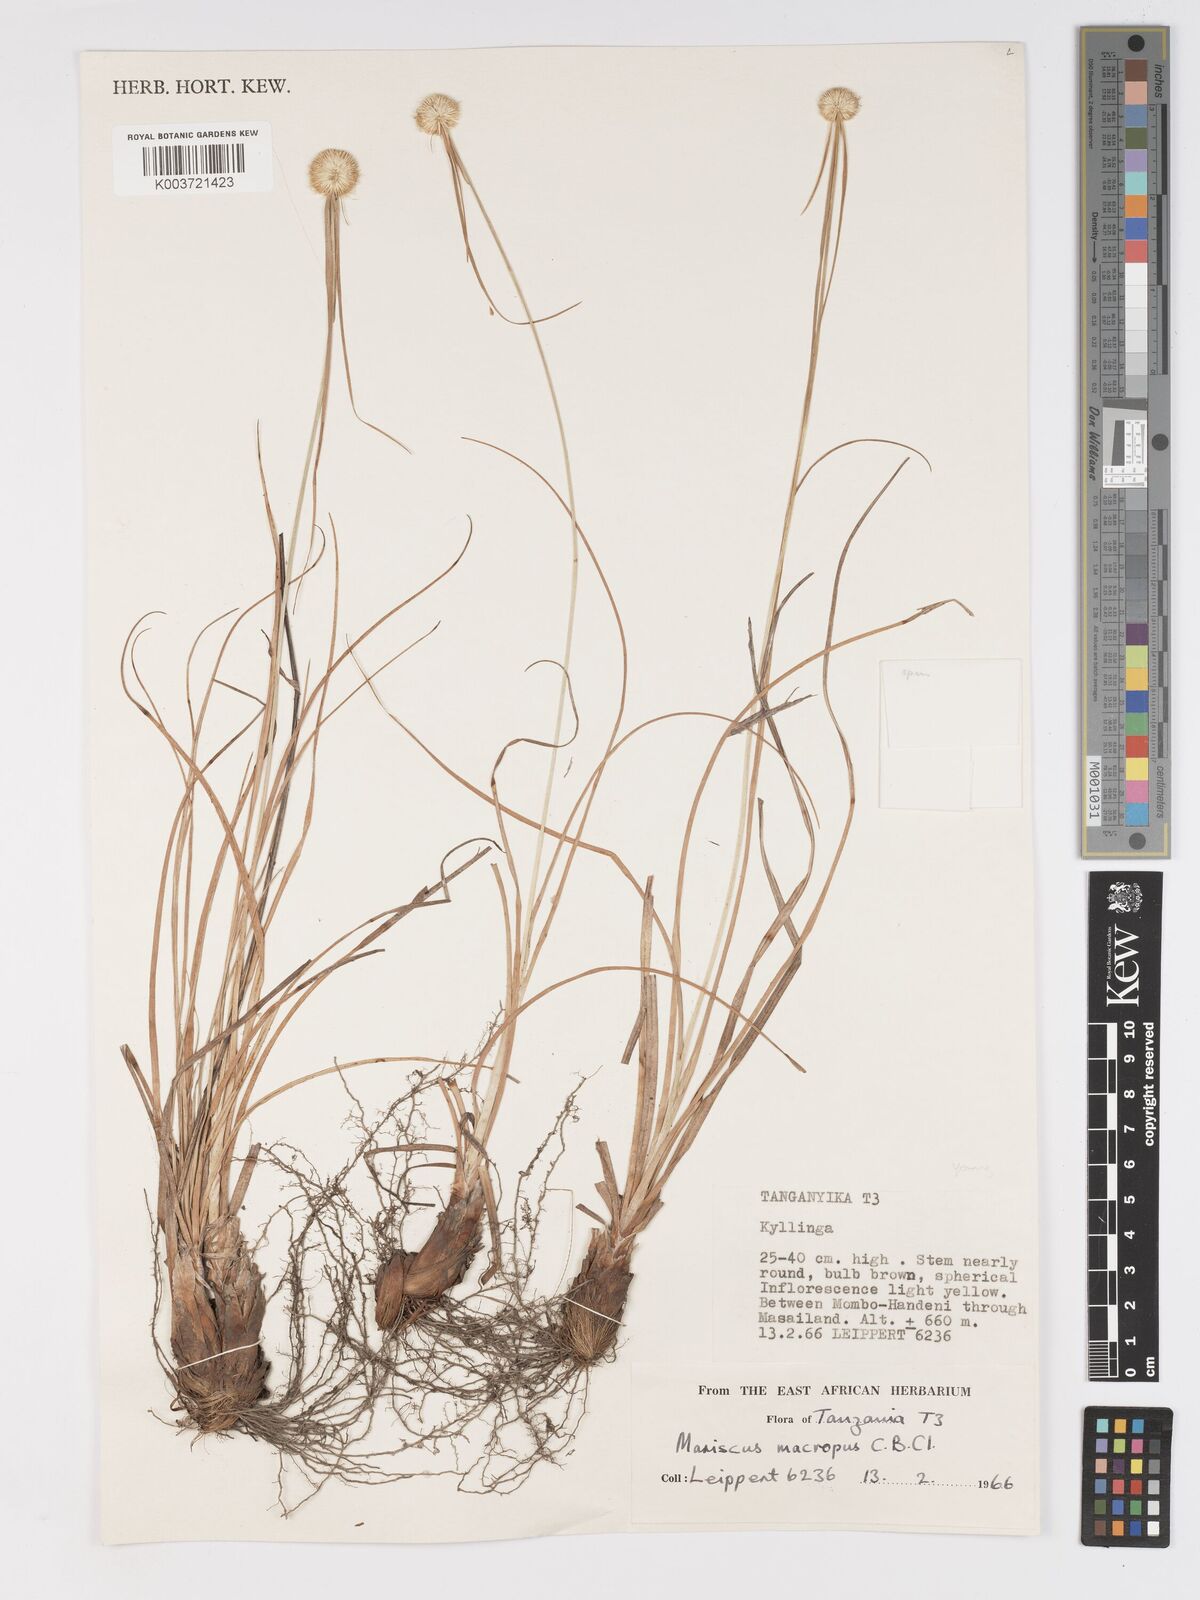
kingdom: Plantae
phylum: Tracheophyta
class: Liliopsida
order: Poales
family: Cyperaceae
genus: Cyperus
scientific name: Cyperus mollipes
